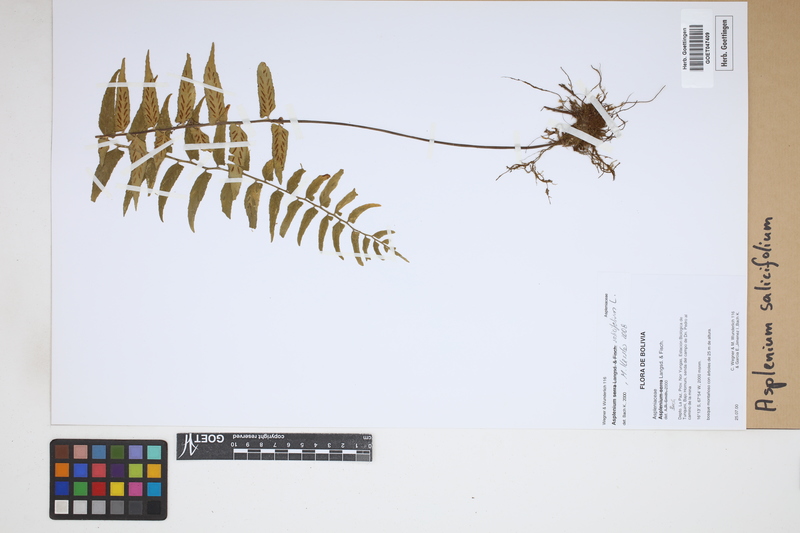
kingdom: Plantae
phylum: Tracheophyta
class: Polypodiopsida
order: Polypodiales
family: Aspleniaceae
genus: Asplenium
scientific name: Asplenium salicifolium
